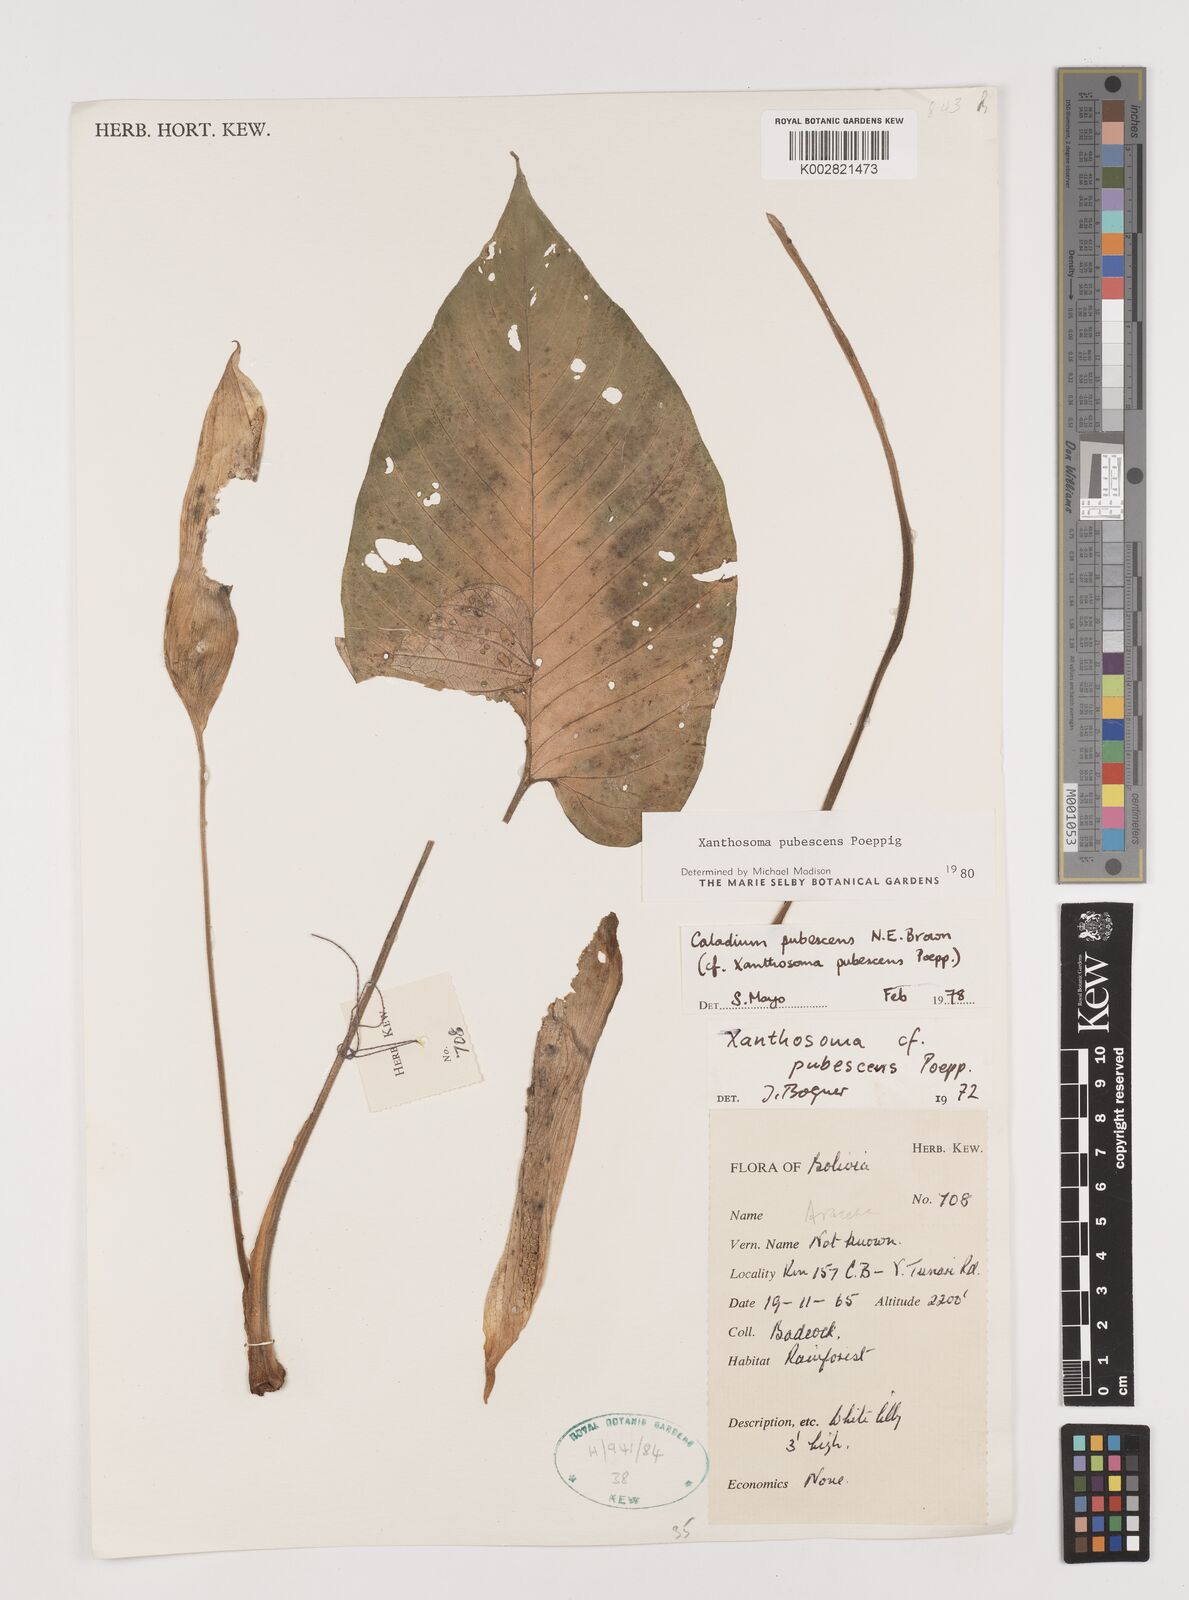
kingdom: Plantae
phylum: Tracheophyta
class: Liliopsida
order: Alismatales
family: Araceae
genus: Xanthosoma
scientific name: Xanthosoma pubescens
